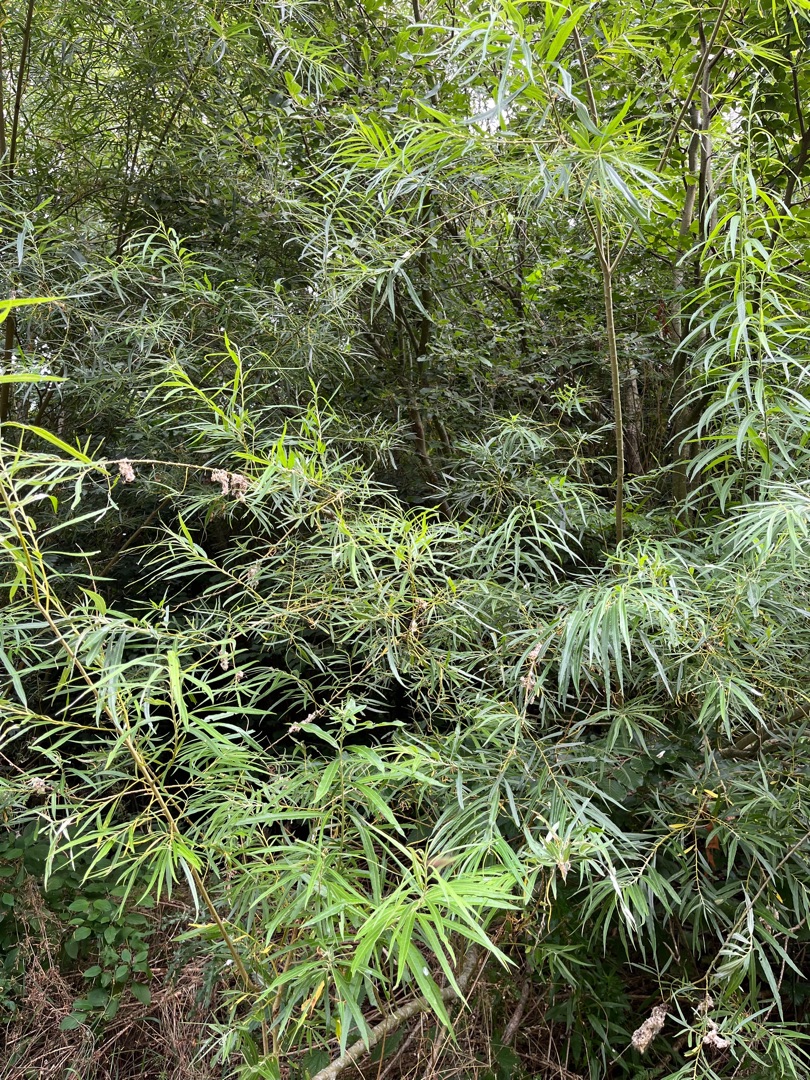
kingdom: Plantae
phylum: Tracheophyta
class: Magnoliopsida
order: Malpighiales
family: Salicaceae
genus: Salix
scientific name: Salix viminalis
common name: Bånd-pil
